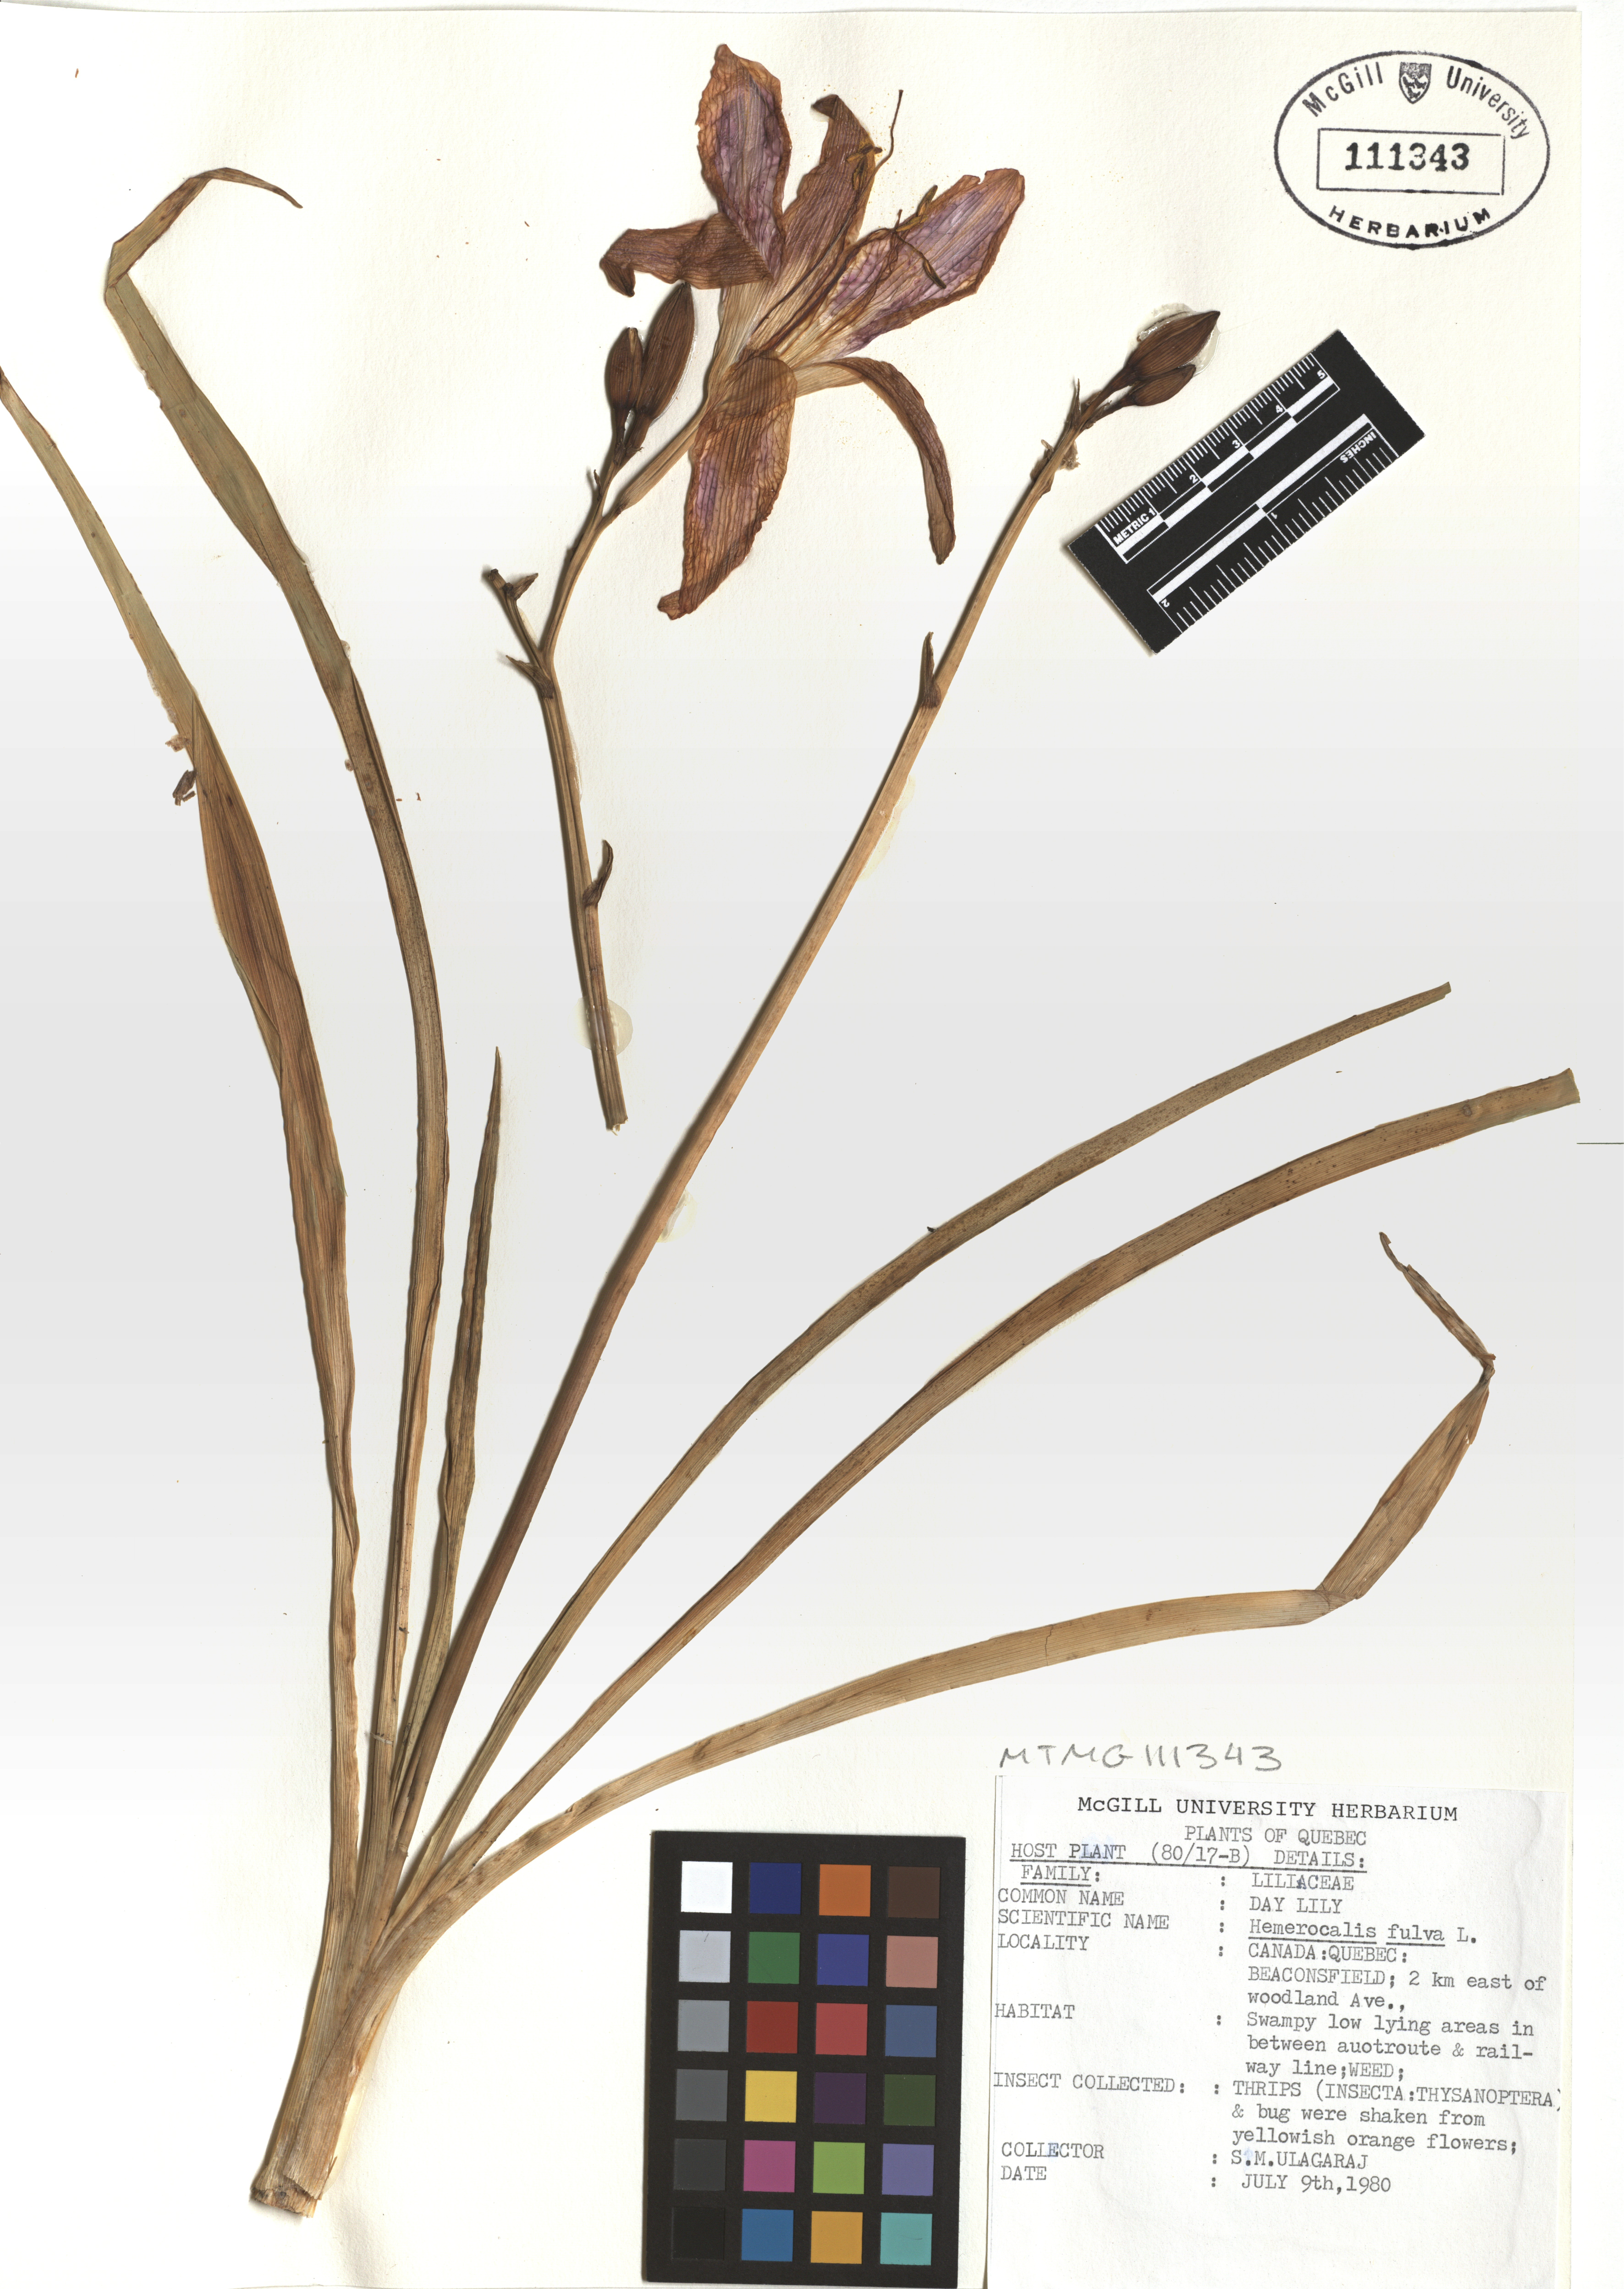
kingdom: Plantae
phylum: Tracheophyta
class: Liliopsida
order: Asparagales
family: Asphodelaceae
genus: Hemerocallis
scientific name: Hemerocallis fulva
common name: Orange day-lily
